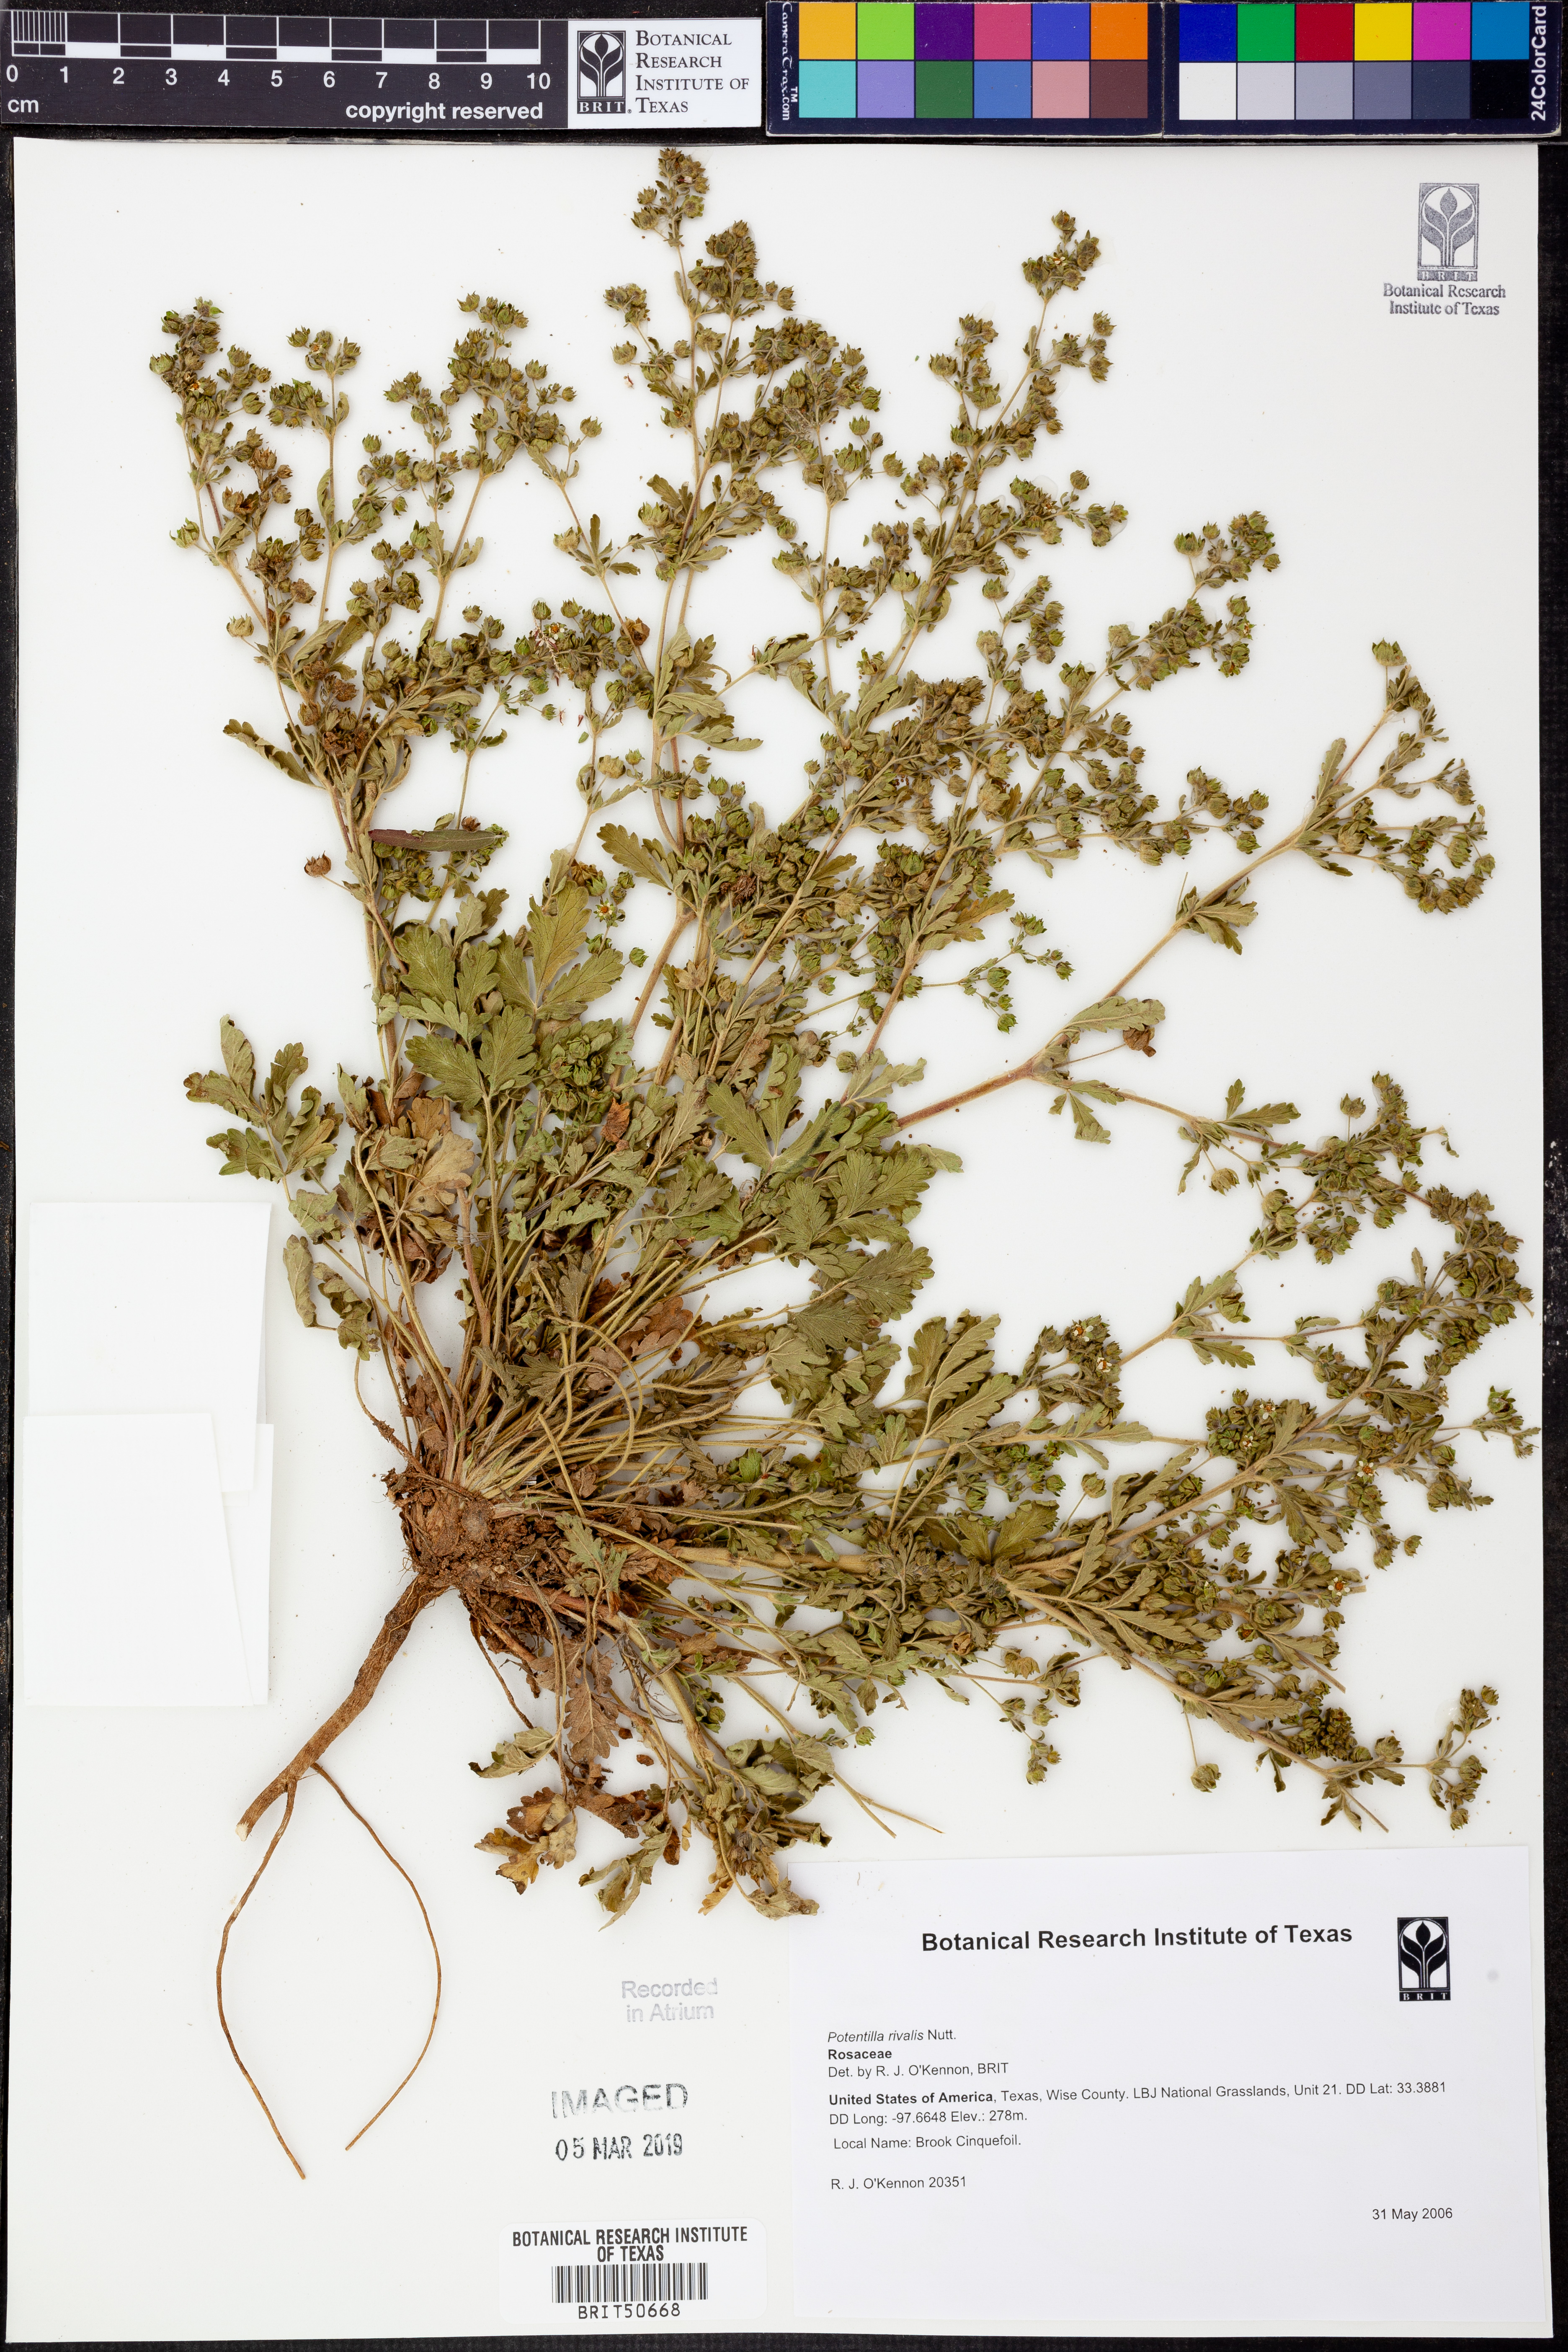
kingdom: Plantae
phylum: Tracheophyta
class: Magnoliopsida
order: Rosales
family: Rosaceae
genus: Potentilla
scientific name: Potentilla rivalis
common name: Brook cinquefoil
